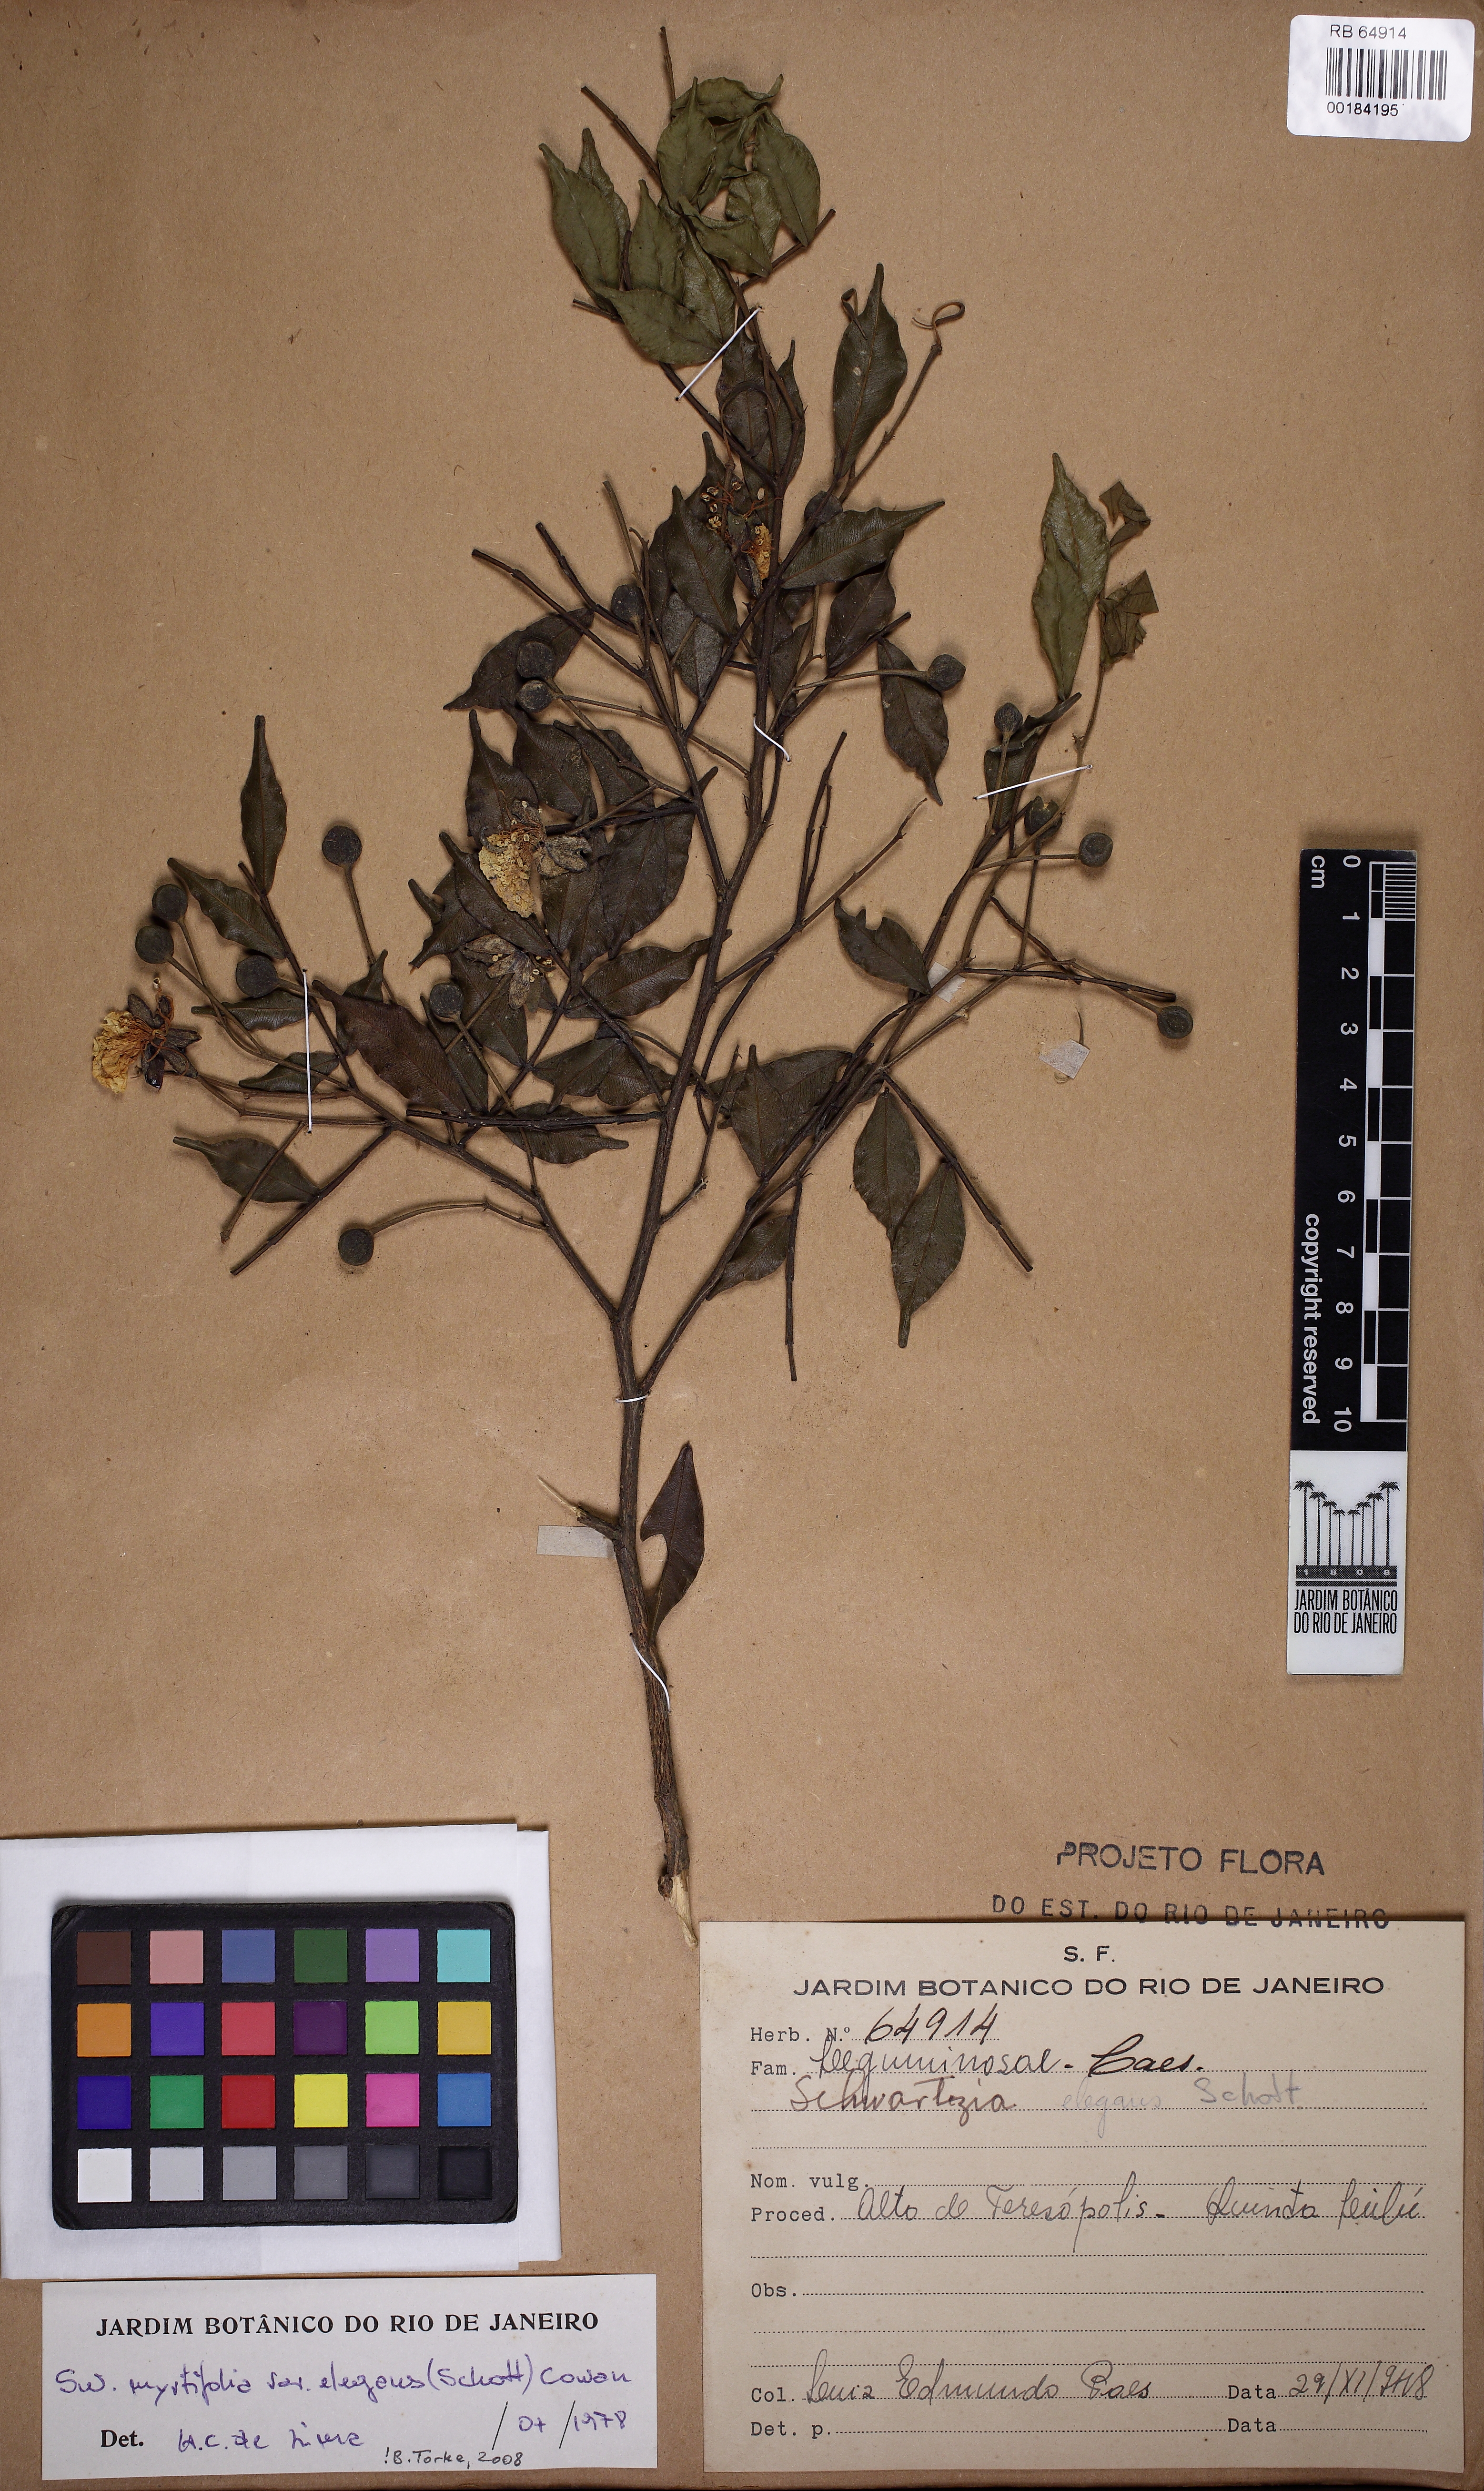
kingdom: Plantae
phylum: Tracheophyta
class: Magnoliopsida
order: Fabales
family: Fabaceae
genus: Swartzia
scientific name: Swartzia myrtifolia
